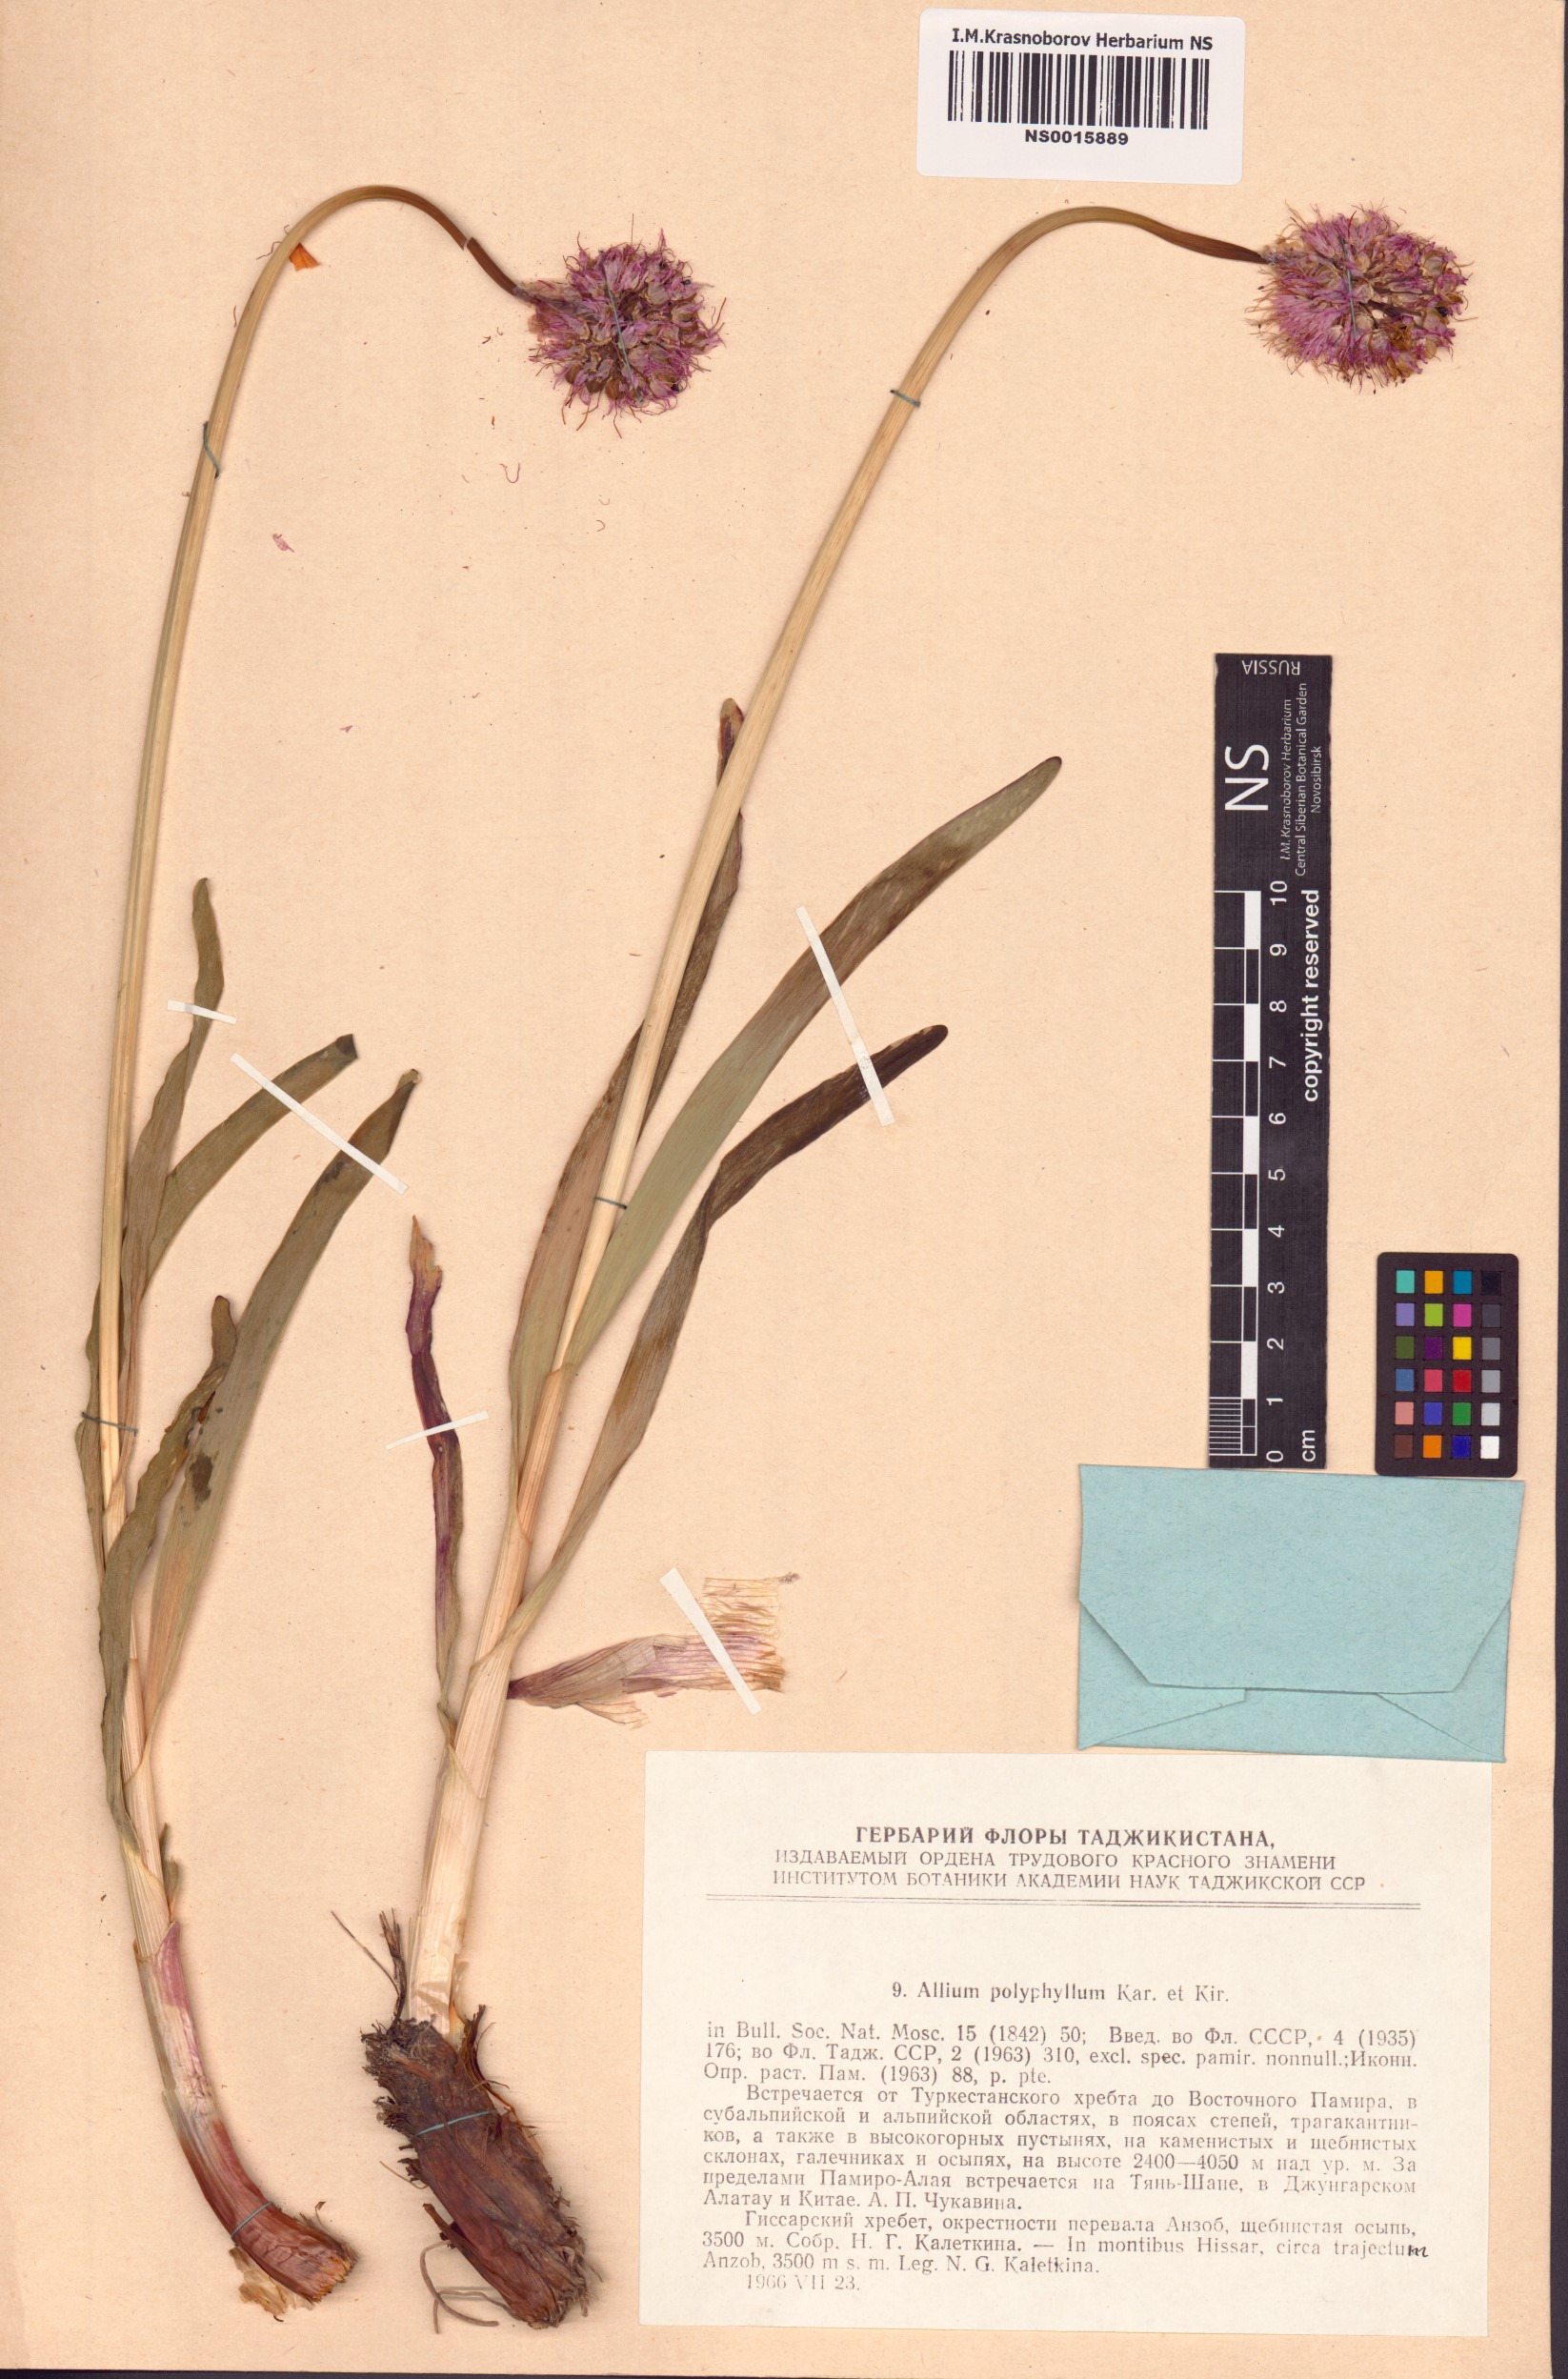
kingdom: Plantae
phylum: Tracheophyta
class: Liliopsida
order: Asparagales
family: Amaryllidaceae
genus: Allium
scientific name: Allium carolinianum
